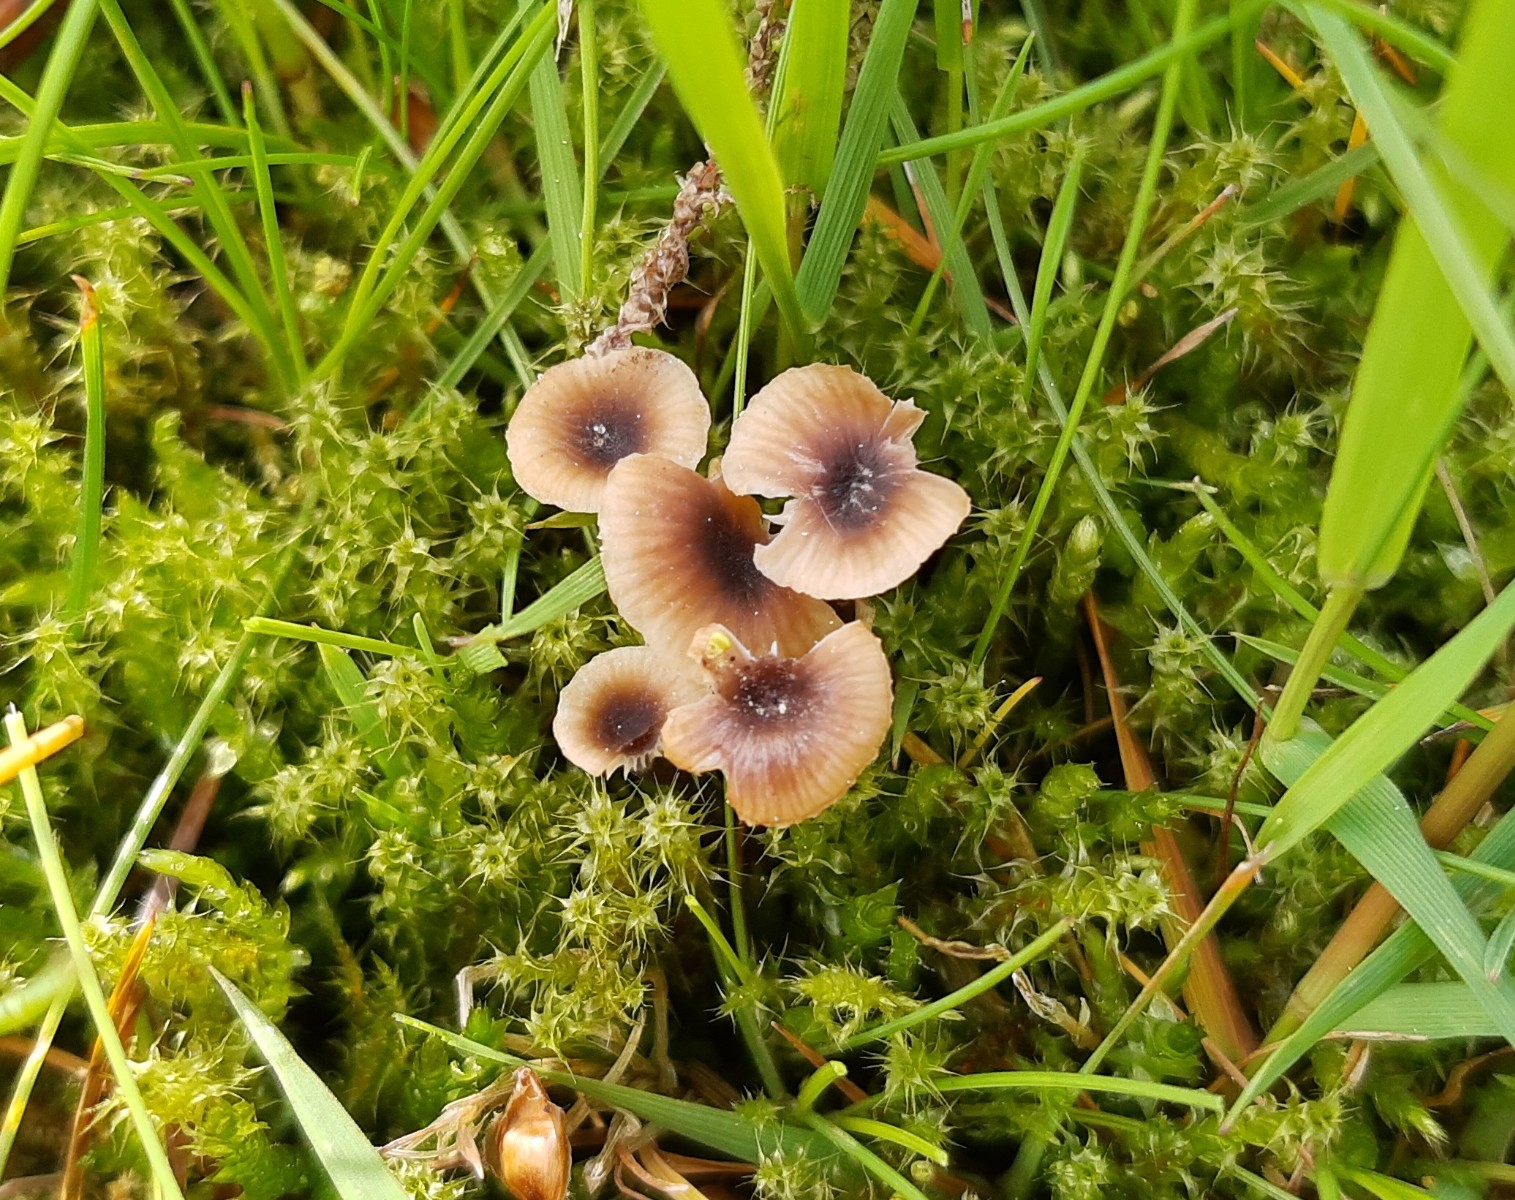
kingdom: Fungi
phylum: Basidiomycota
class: Agaricomycetes
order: Hymenochaetales
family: Rickenellaceae
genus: Rickenella
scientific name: Rickenella swartzii
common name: finstokket mosnavlehat
